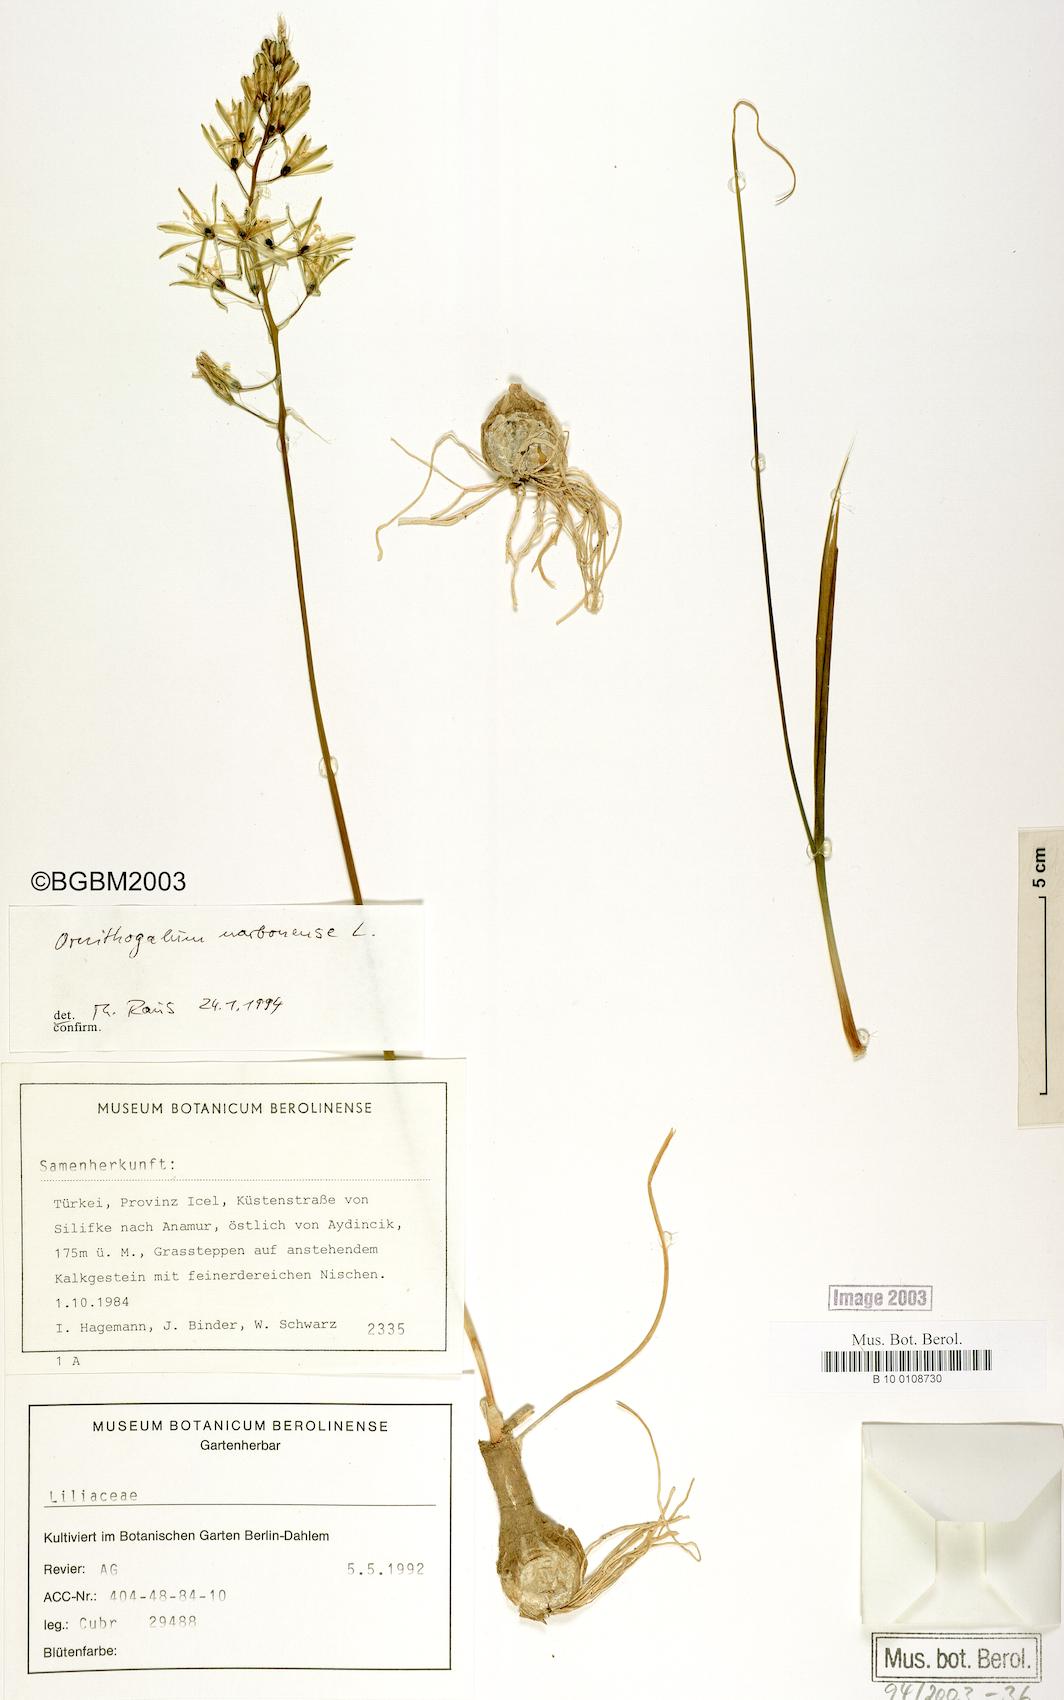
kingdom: Plantae
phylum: Tracheophyta
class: Liliopsida
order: Asparagales
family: Asparagaceae
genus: Ornithogalum
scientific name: Ornithogalum narbonense
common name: Bath-asparagus
